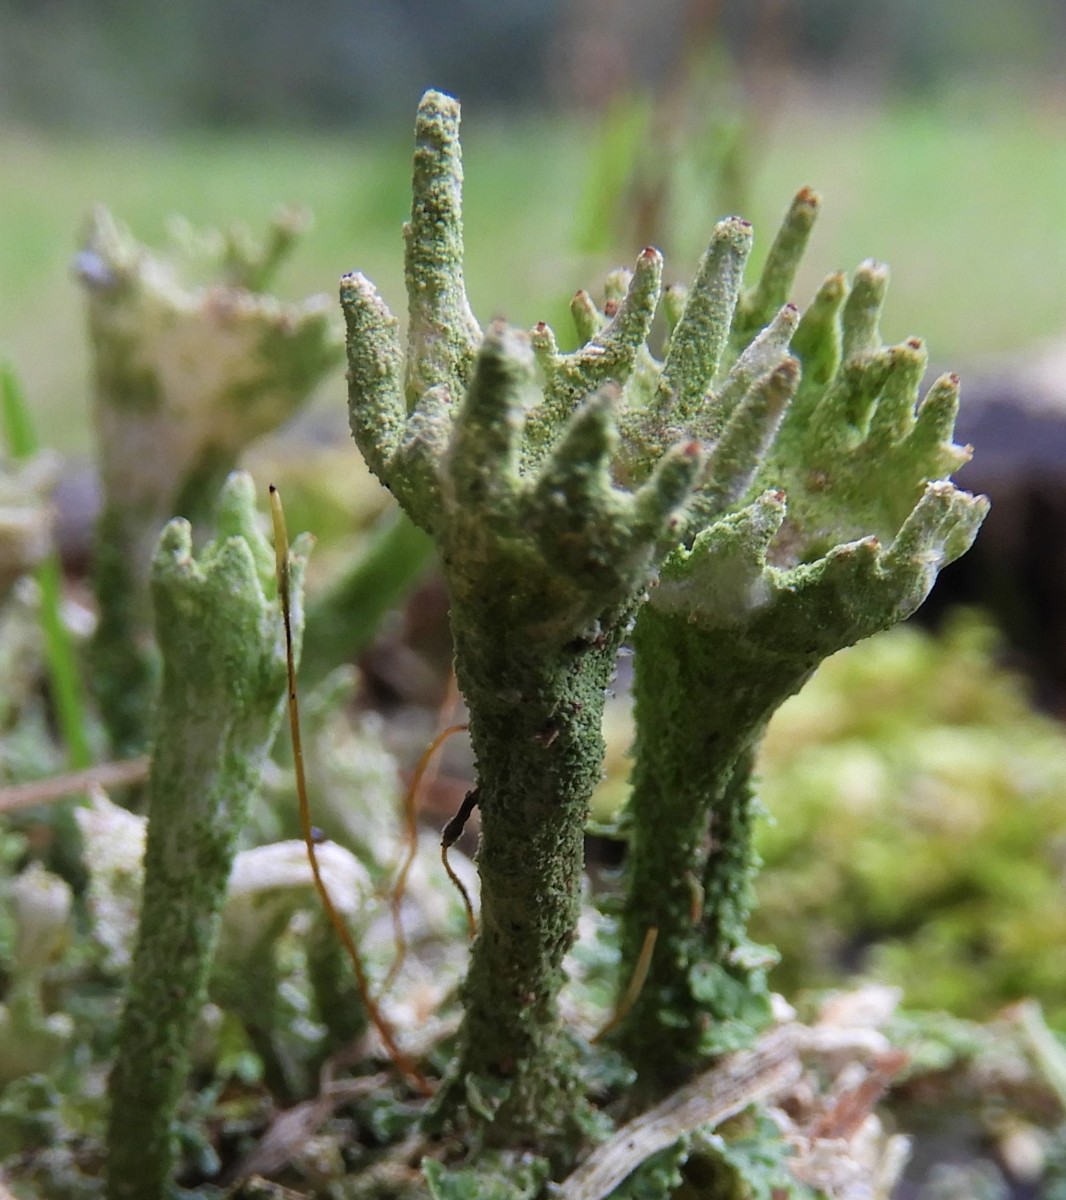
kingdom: Fungi
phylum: Ascomycota
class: Lecanoromycetes
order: Lecanorales
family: Cladoniaceae
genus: Cladonia
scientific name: Cladonia
